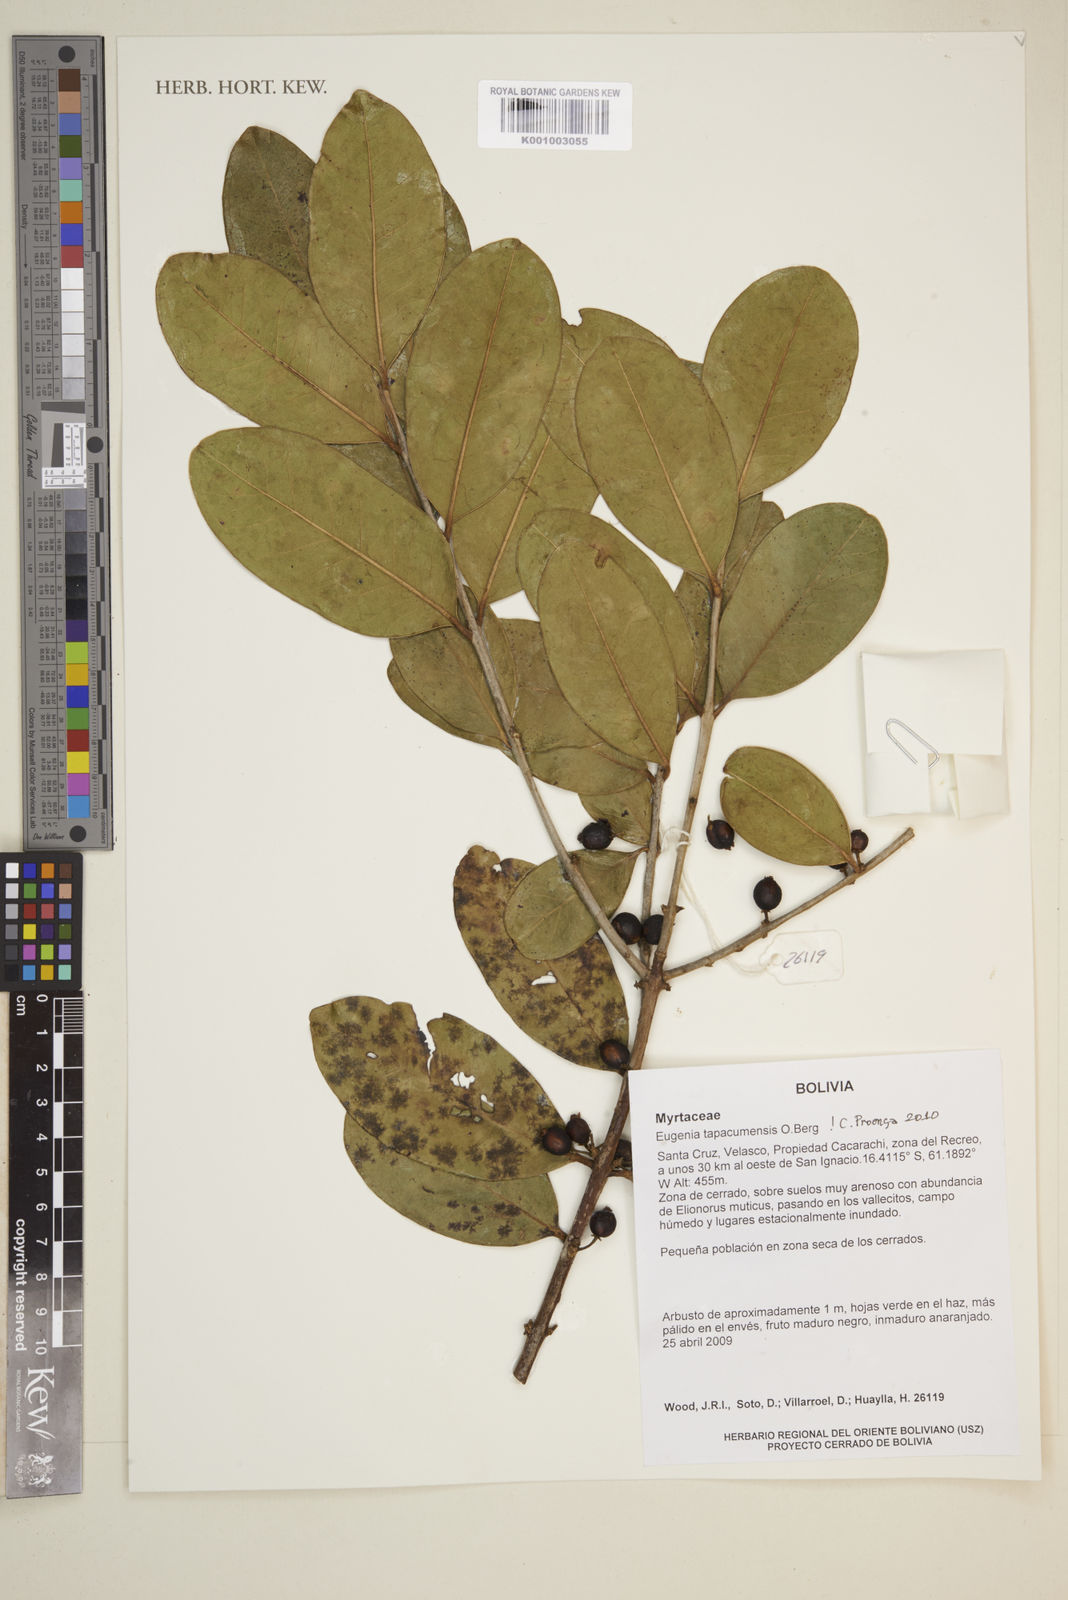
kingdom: Plantae
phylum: Tracheophyta
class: Magnoliopsida
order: Myrtales
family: Myrtaceae
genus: Eugenia
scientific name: Eugenia tapacumensis
